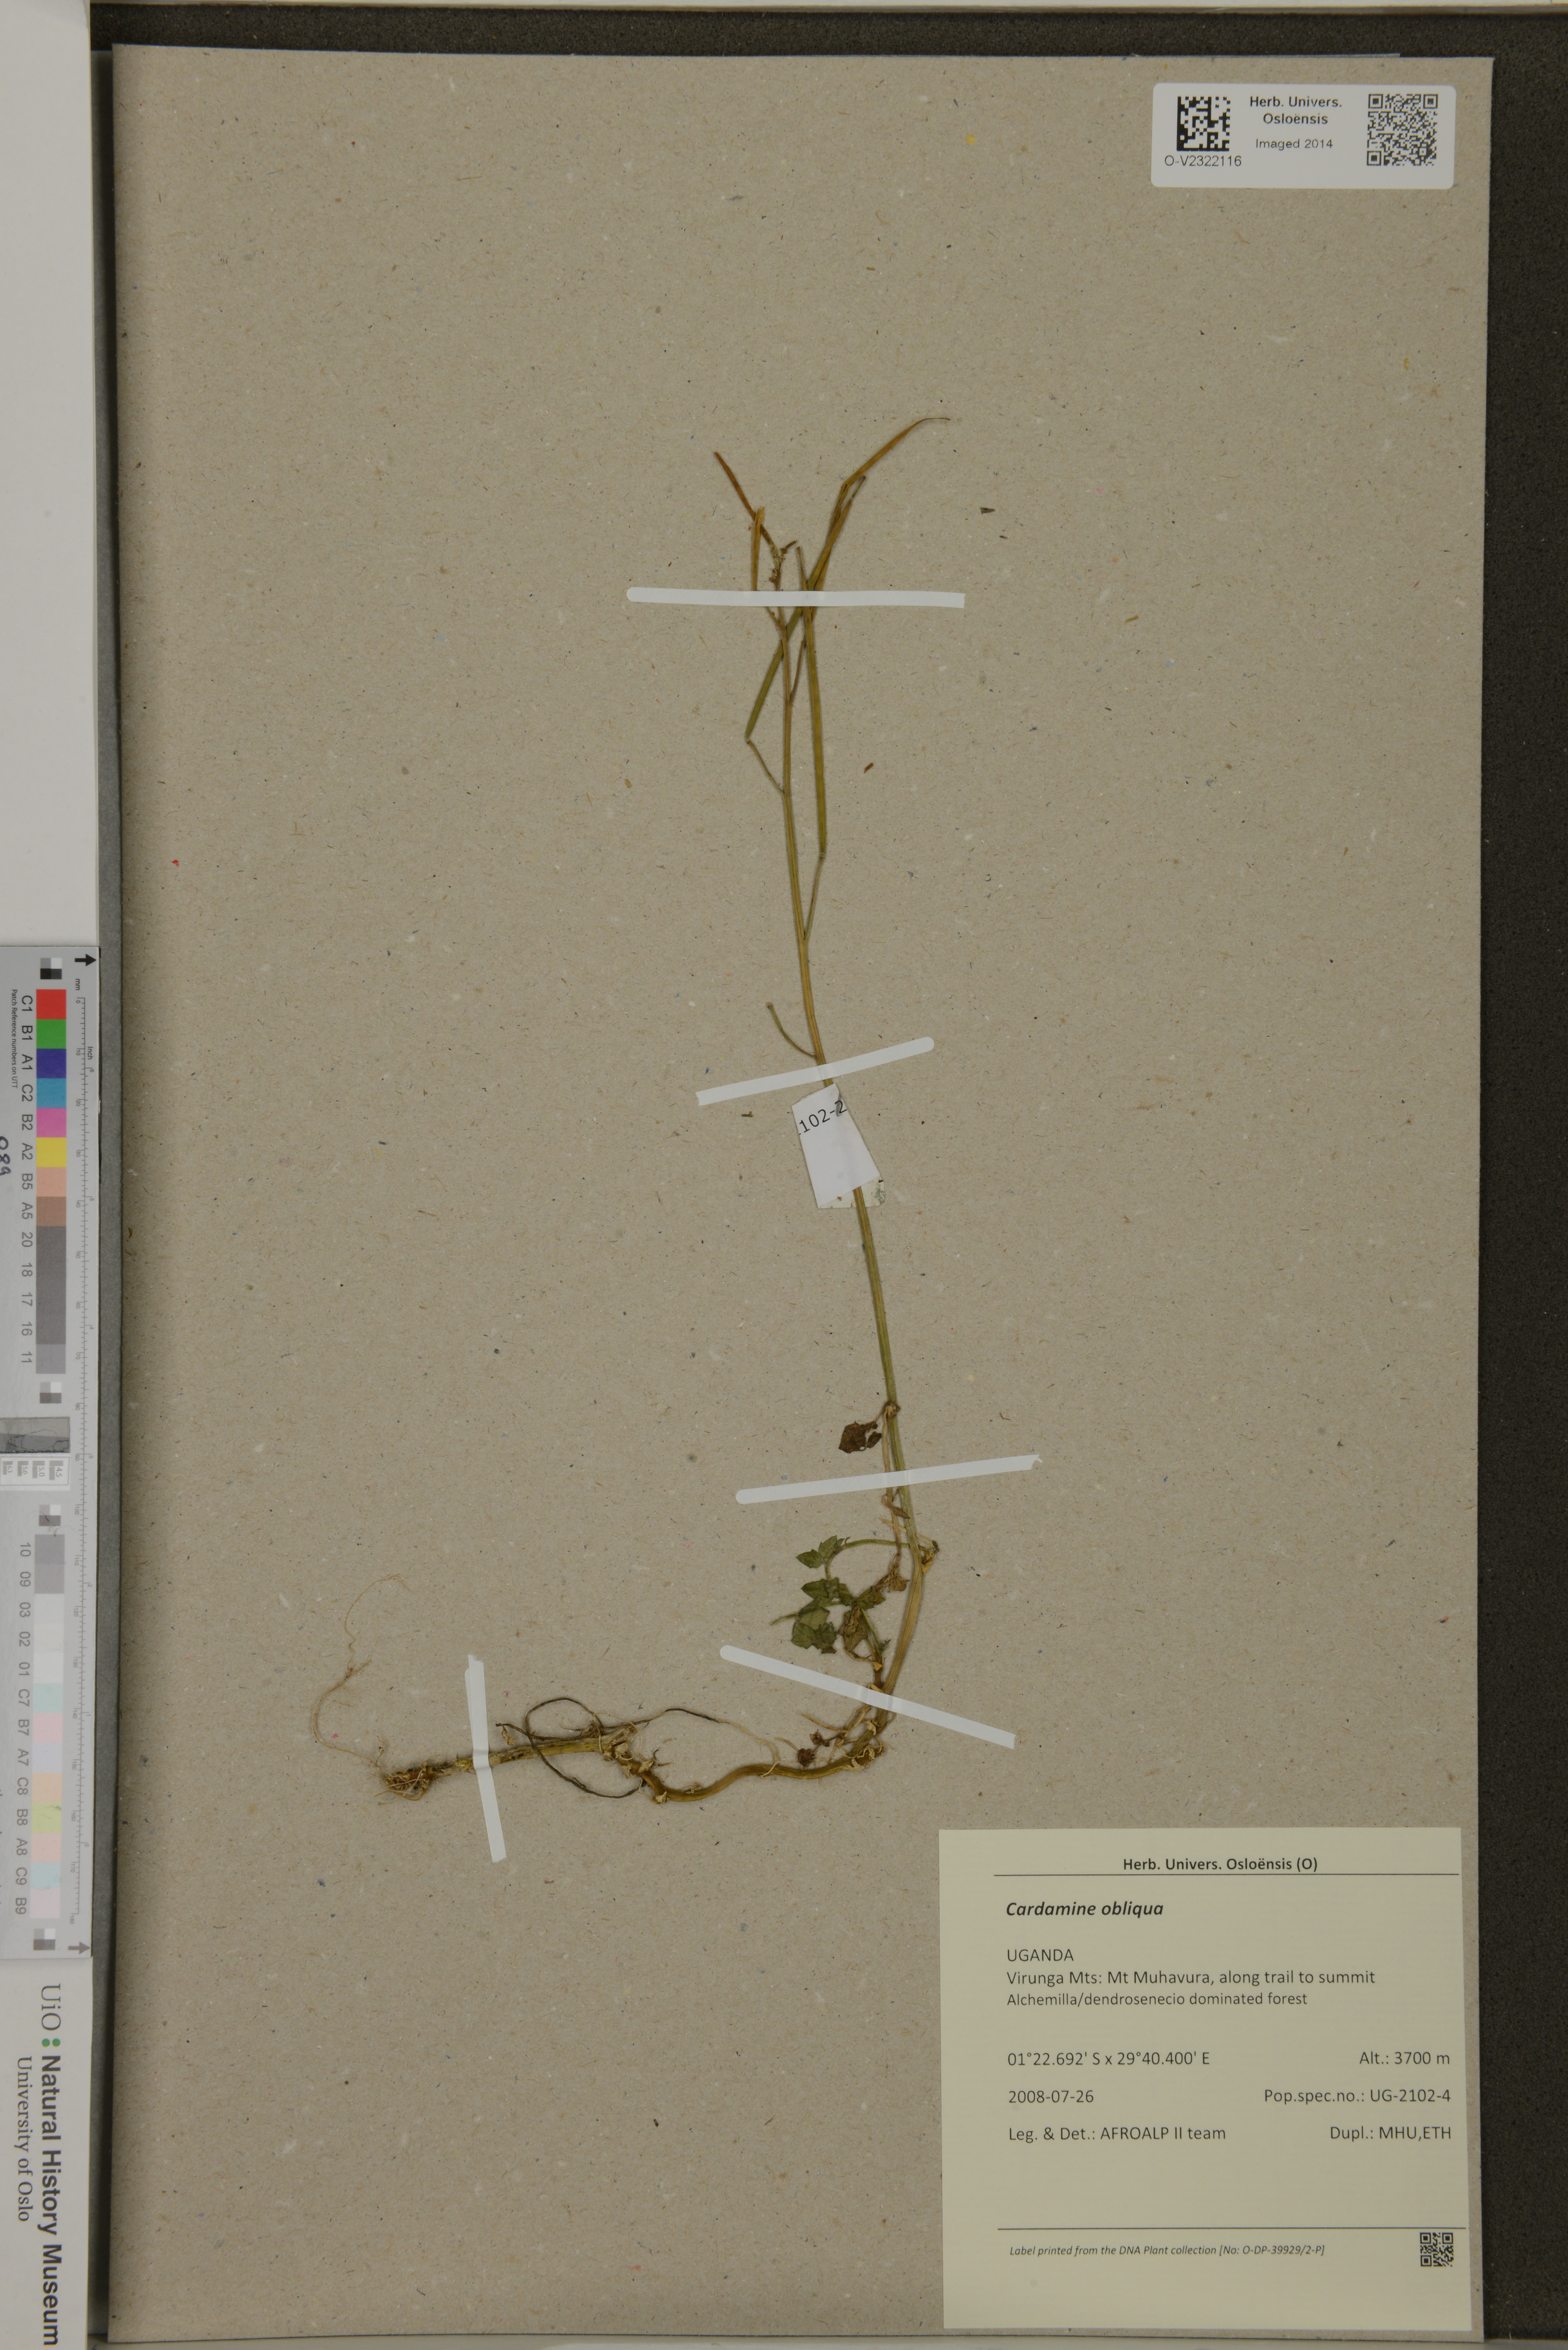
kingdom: Plantae
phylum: Tracheophyta
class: Magnoliopsida
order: Brassicales
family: Brassicaceae
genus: Cardamine
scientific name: Cardamine obliqua
